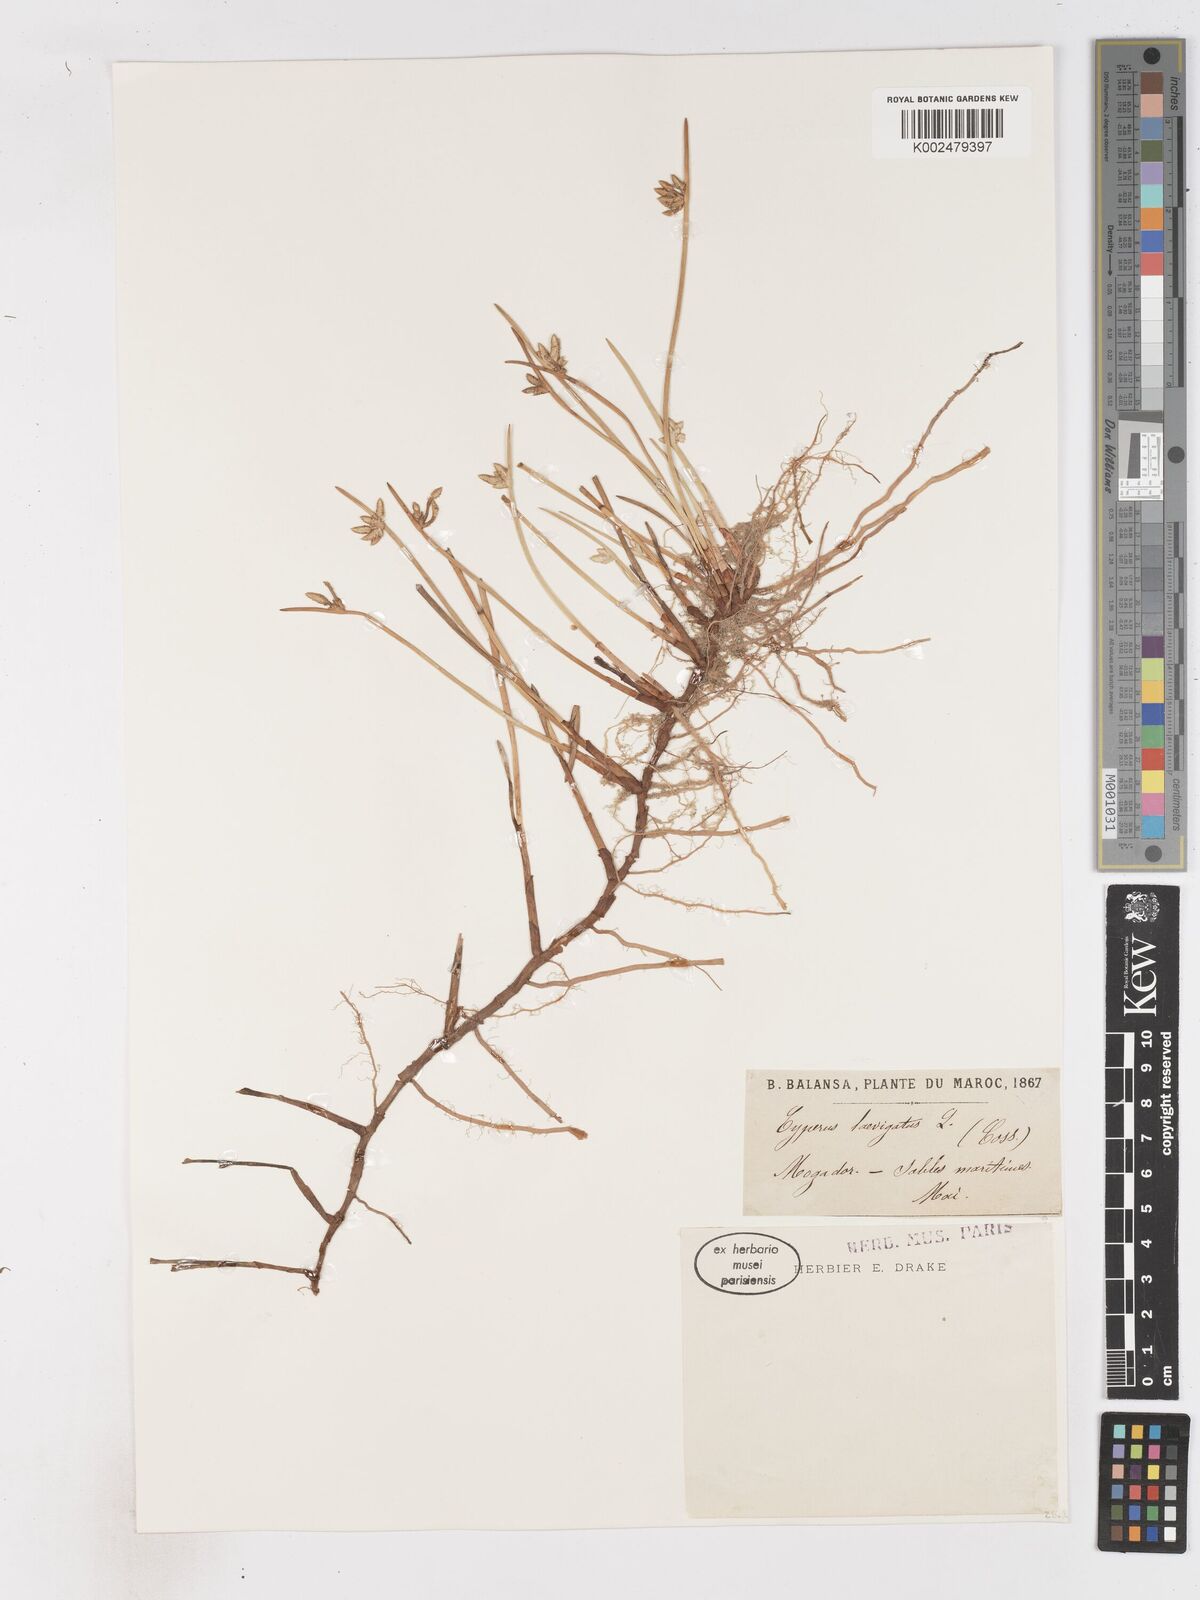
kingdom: Plantae
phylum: Tracheophyta
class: Liliopsida
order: Poales
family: Cyperaceae
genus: Cyperus
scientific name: Cyperus laevigatus
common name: Smooth flat sedge
